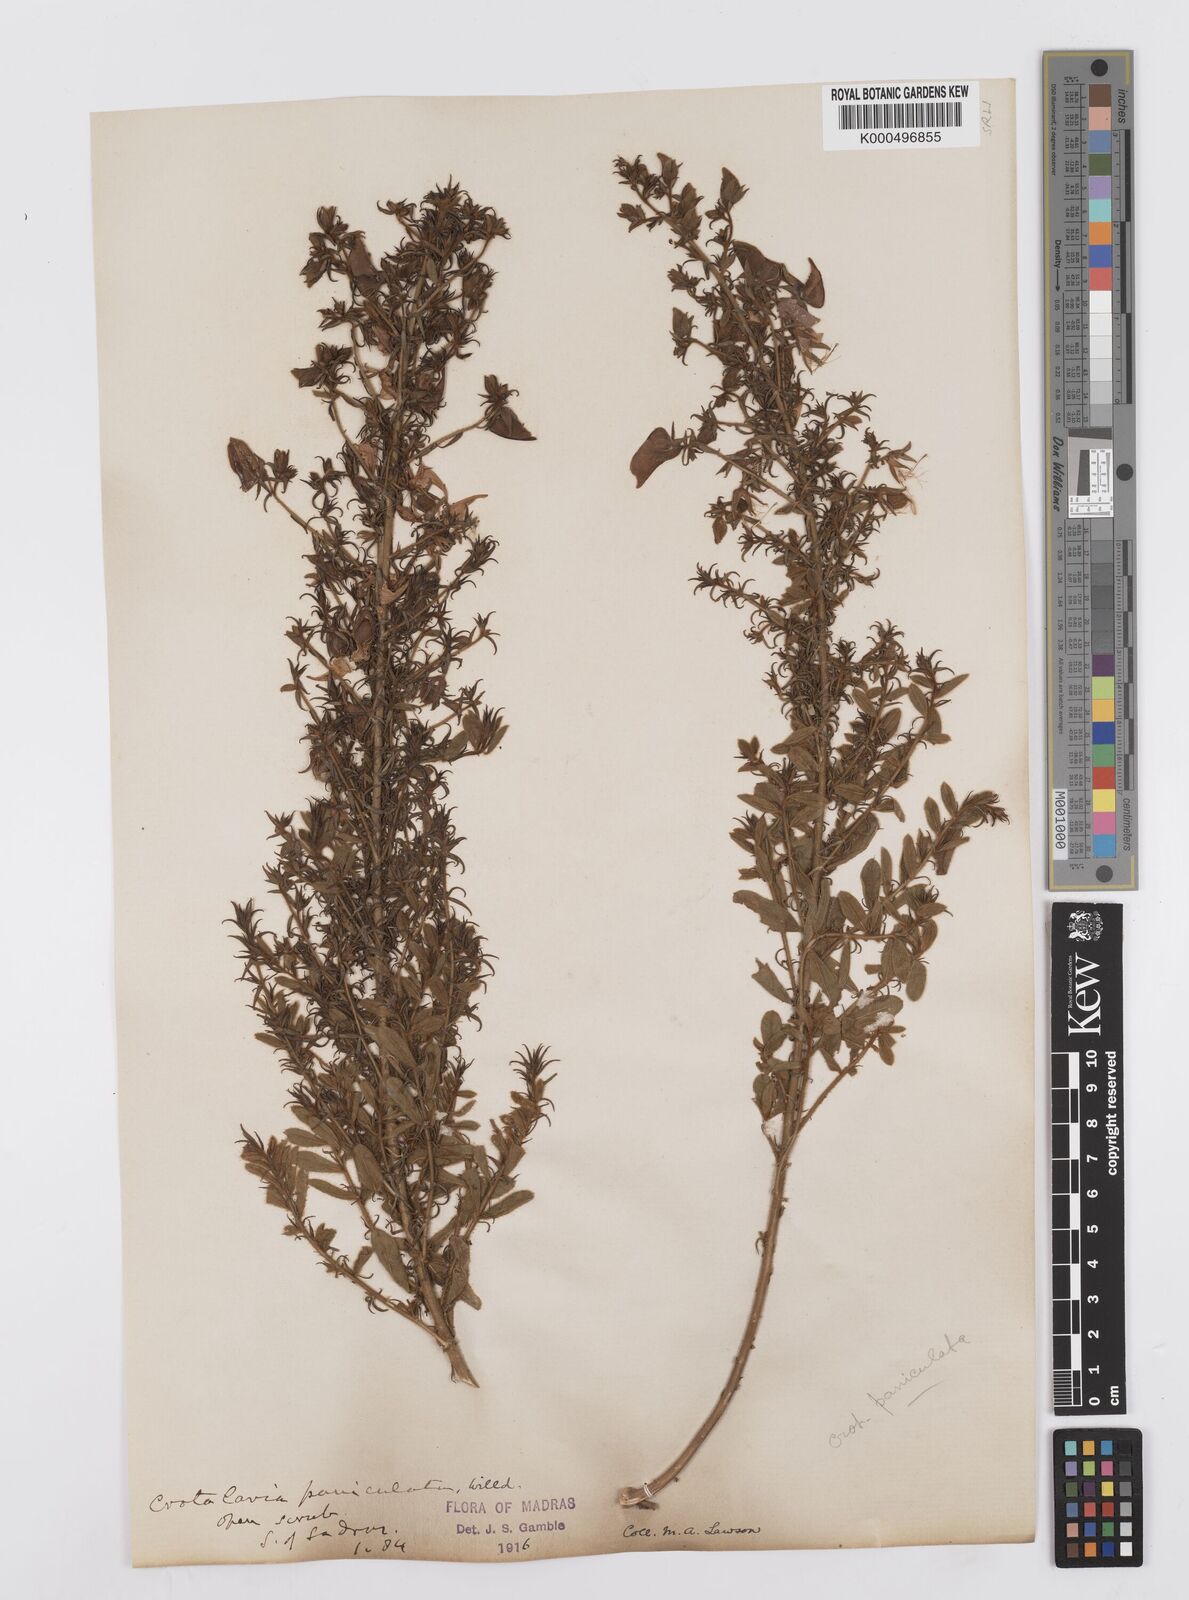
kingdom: Plantae
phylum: Tracheophyta
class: Magnoliopsida
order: Fabales
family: Fabaceae
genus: Crotalaria
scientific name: Crotalaria paniculata
